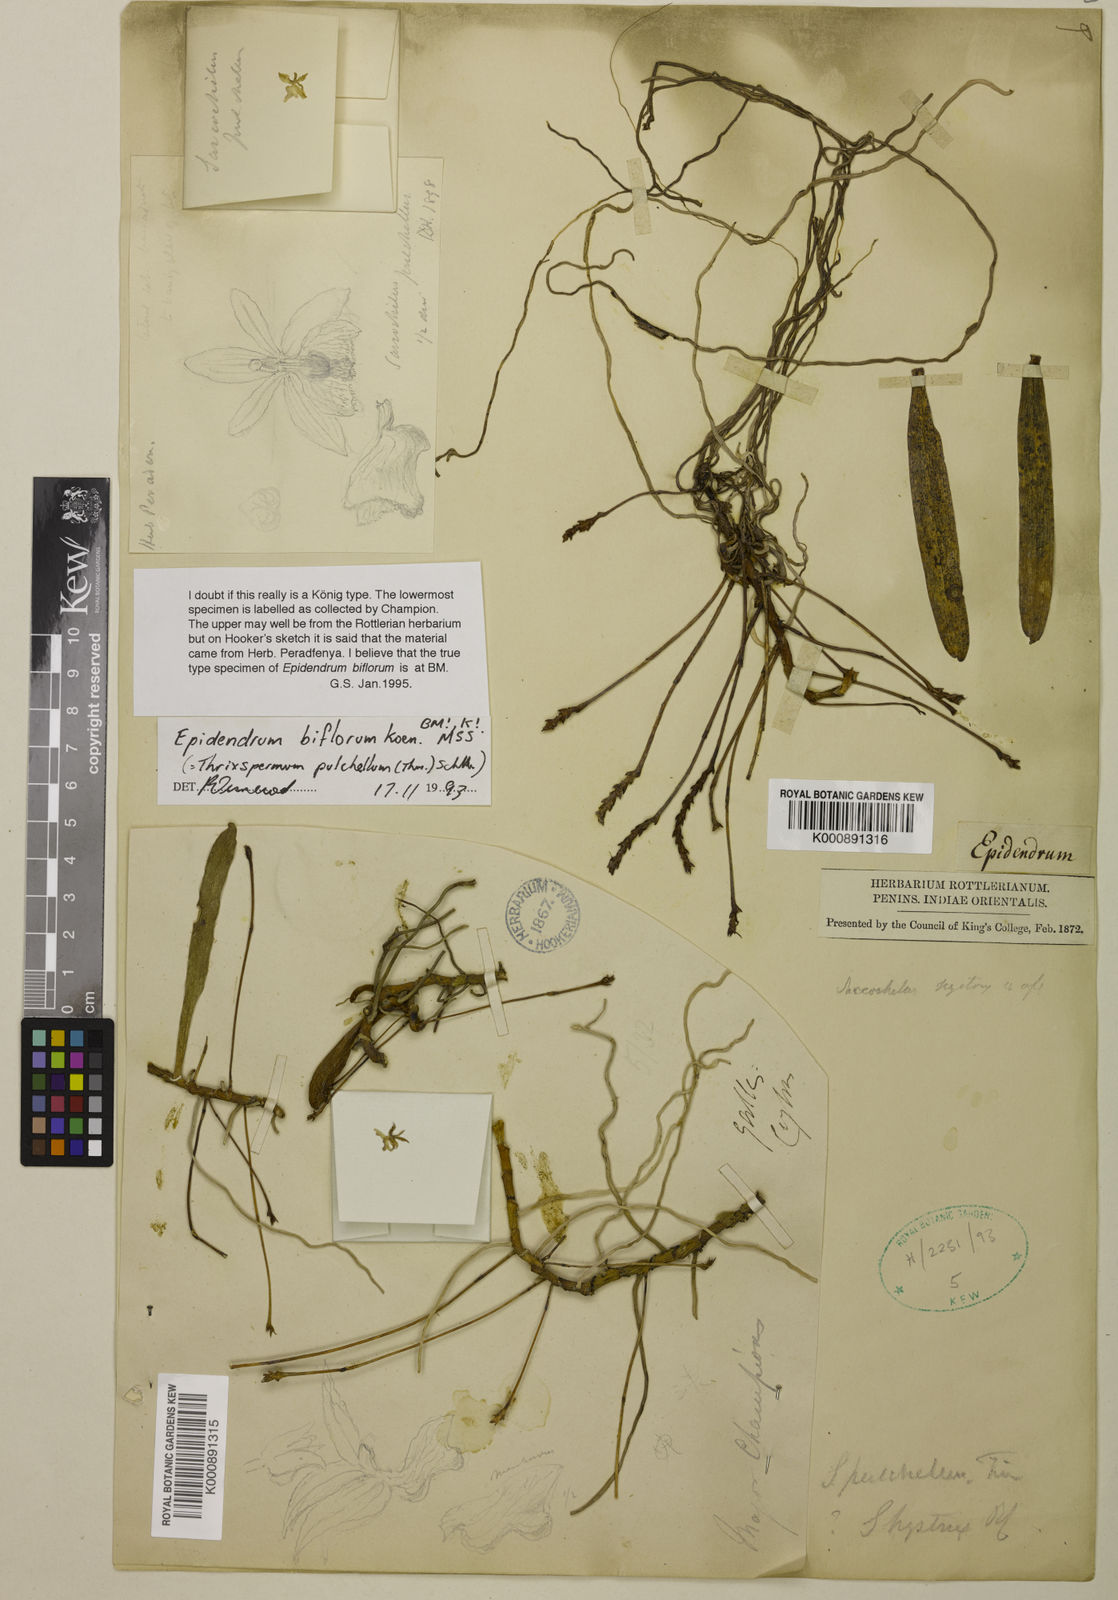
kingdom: Plantae
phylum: Tracheophyta
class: Liliopsida
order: Asparagales
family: Orchidaceae
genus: Thrixspermum
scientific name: Thrixspermum pulchellum
